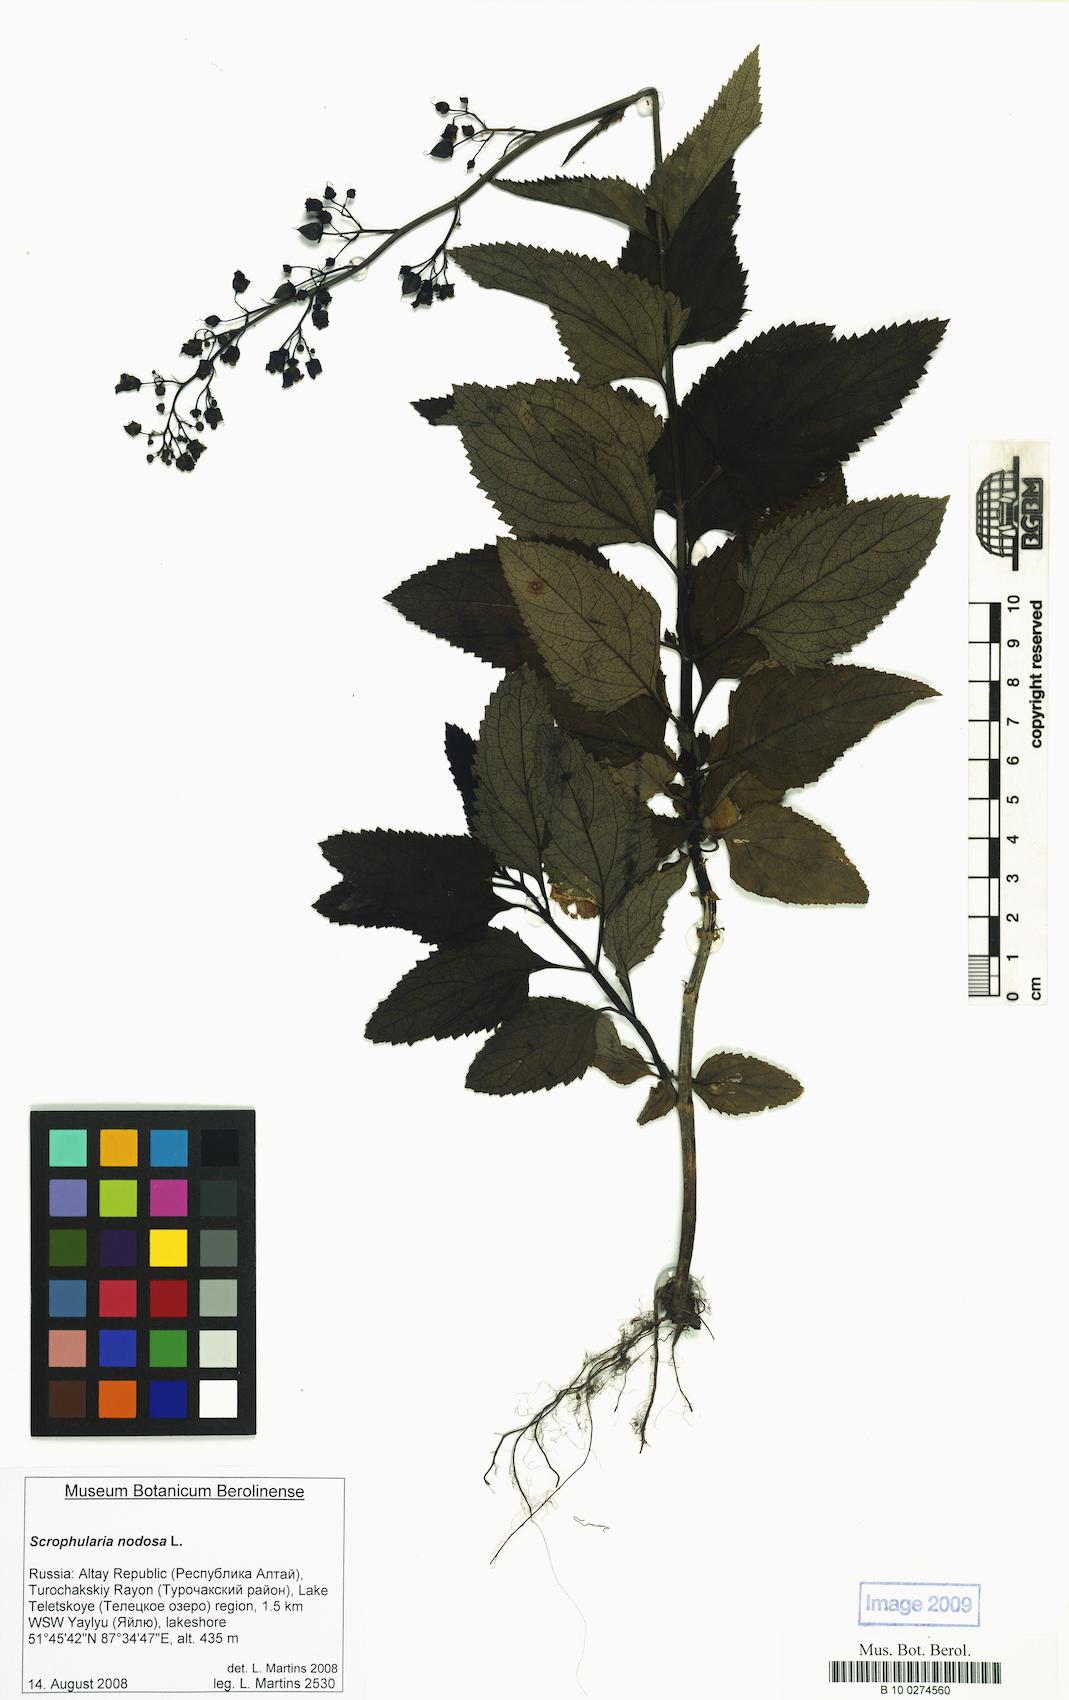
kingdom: Plantae
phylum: Tracheophyta
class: Magnoliopsida
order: Lamiales
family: Scrophulariaceae
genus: Scrophularia
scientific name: Scrophularia nodosa
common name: Common figwort
